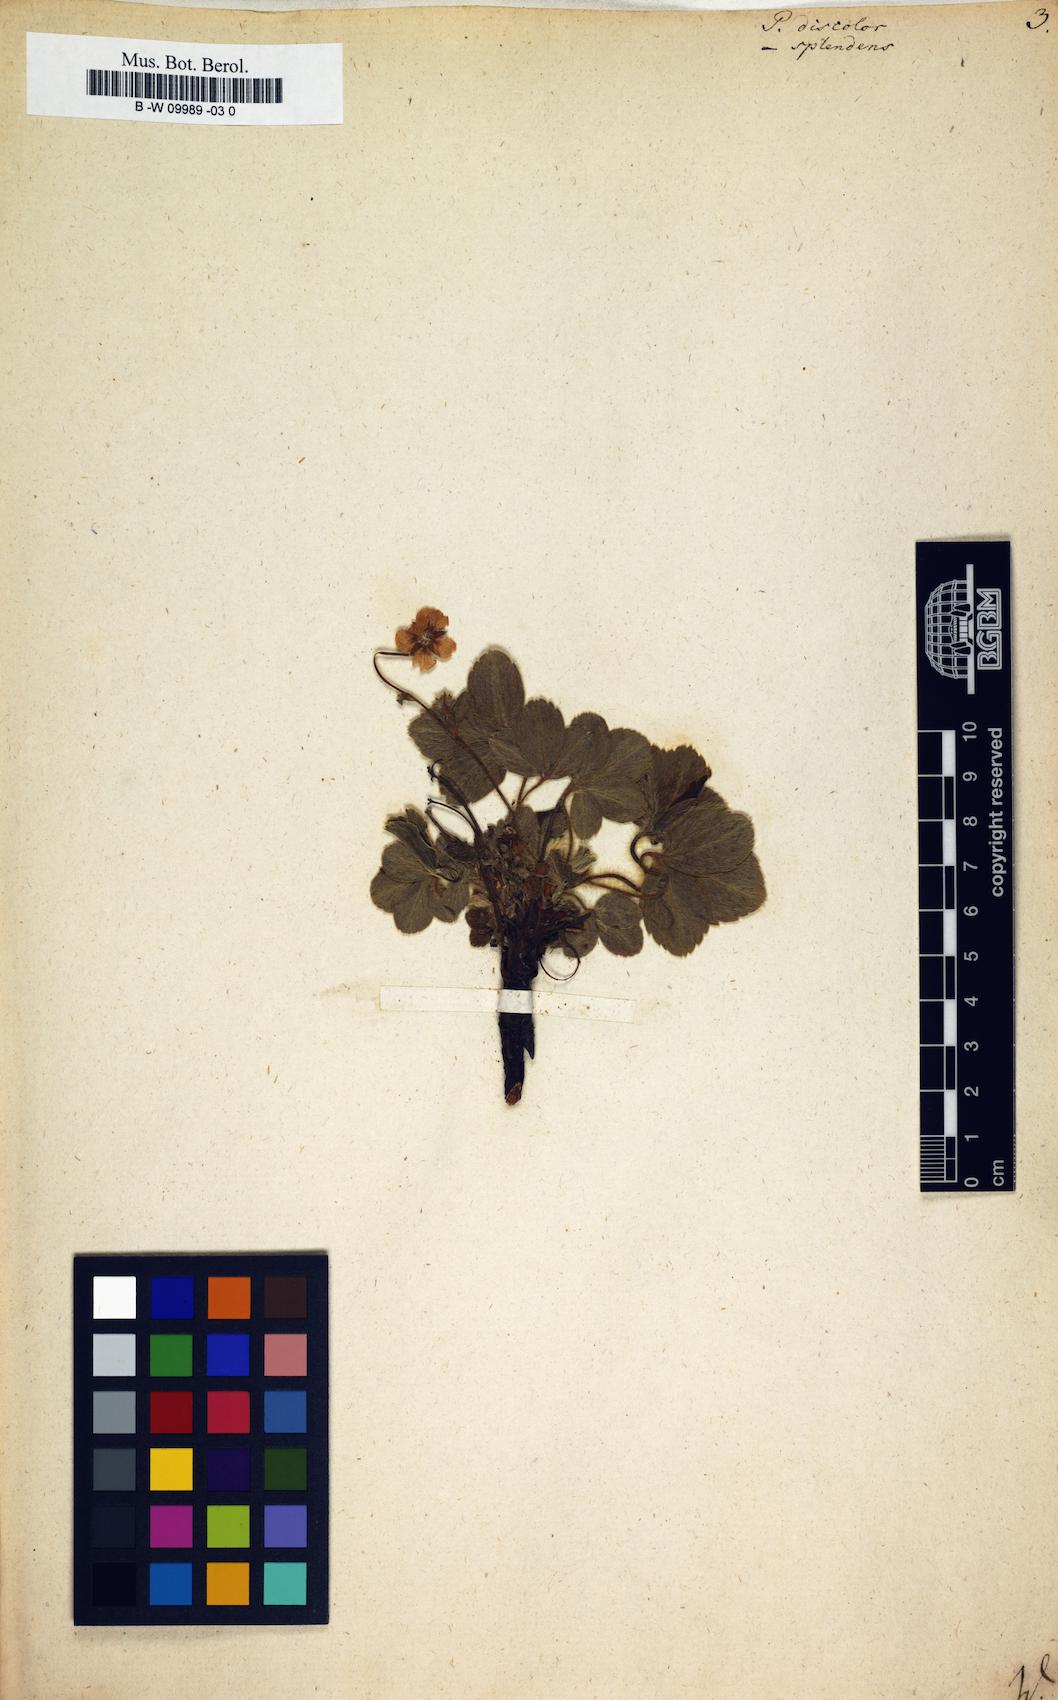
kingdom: Plantae
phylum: Tracheophyta
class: Magnoliopsida
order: Rosales
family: Rosaceae
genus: Potentilla
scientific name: Potentilla discolor
